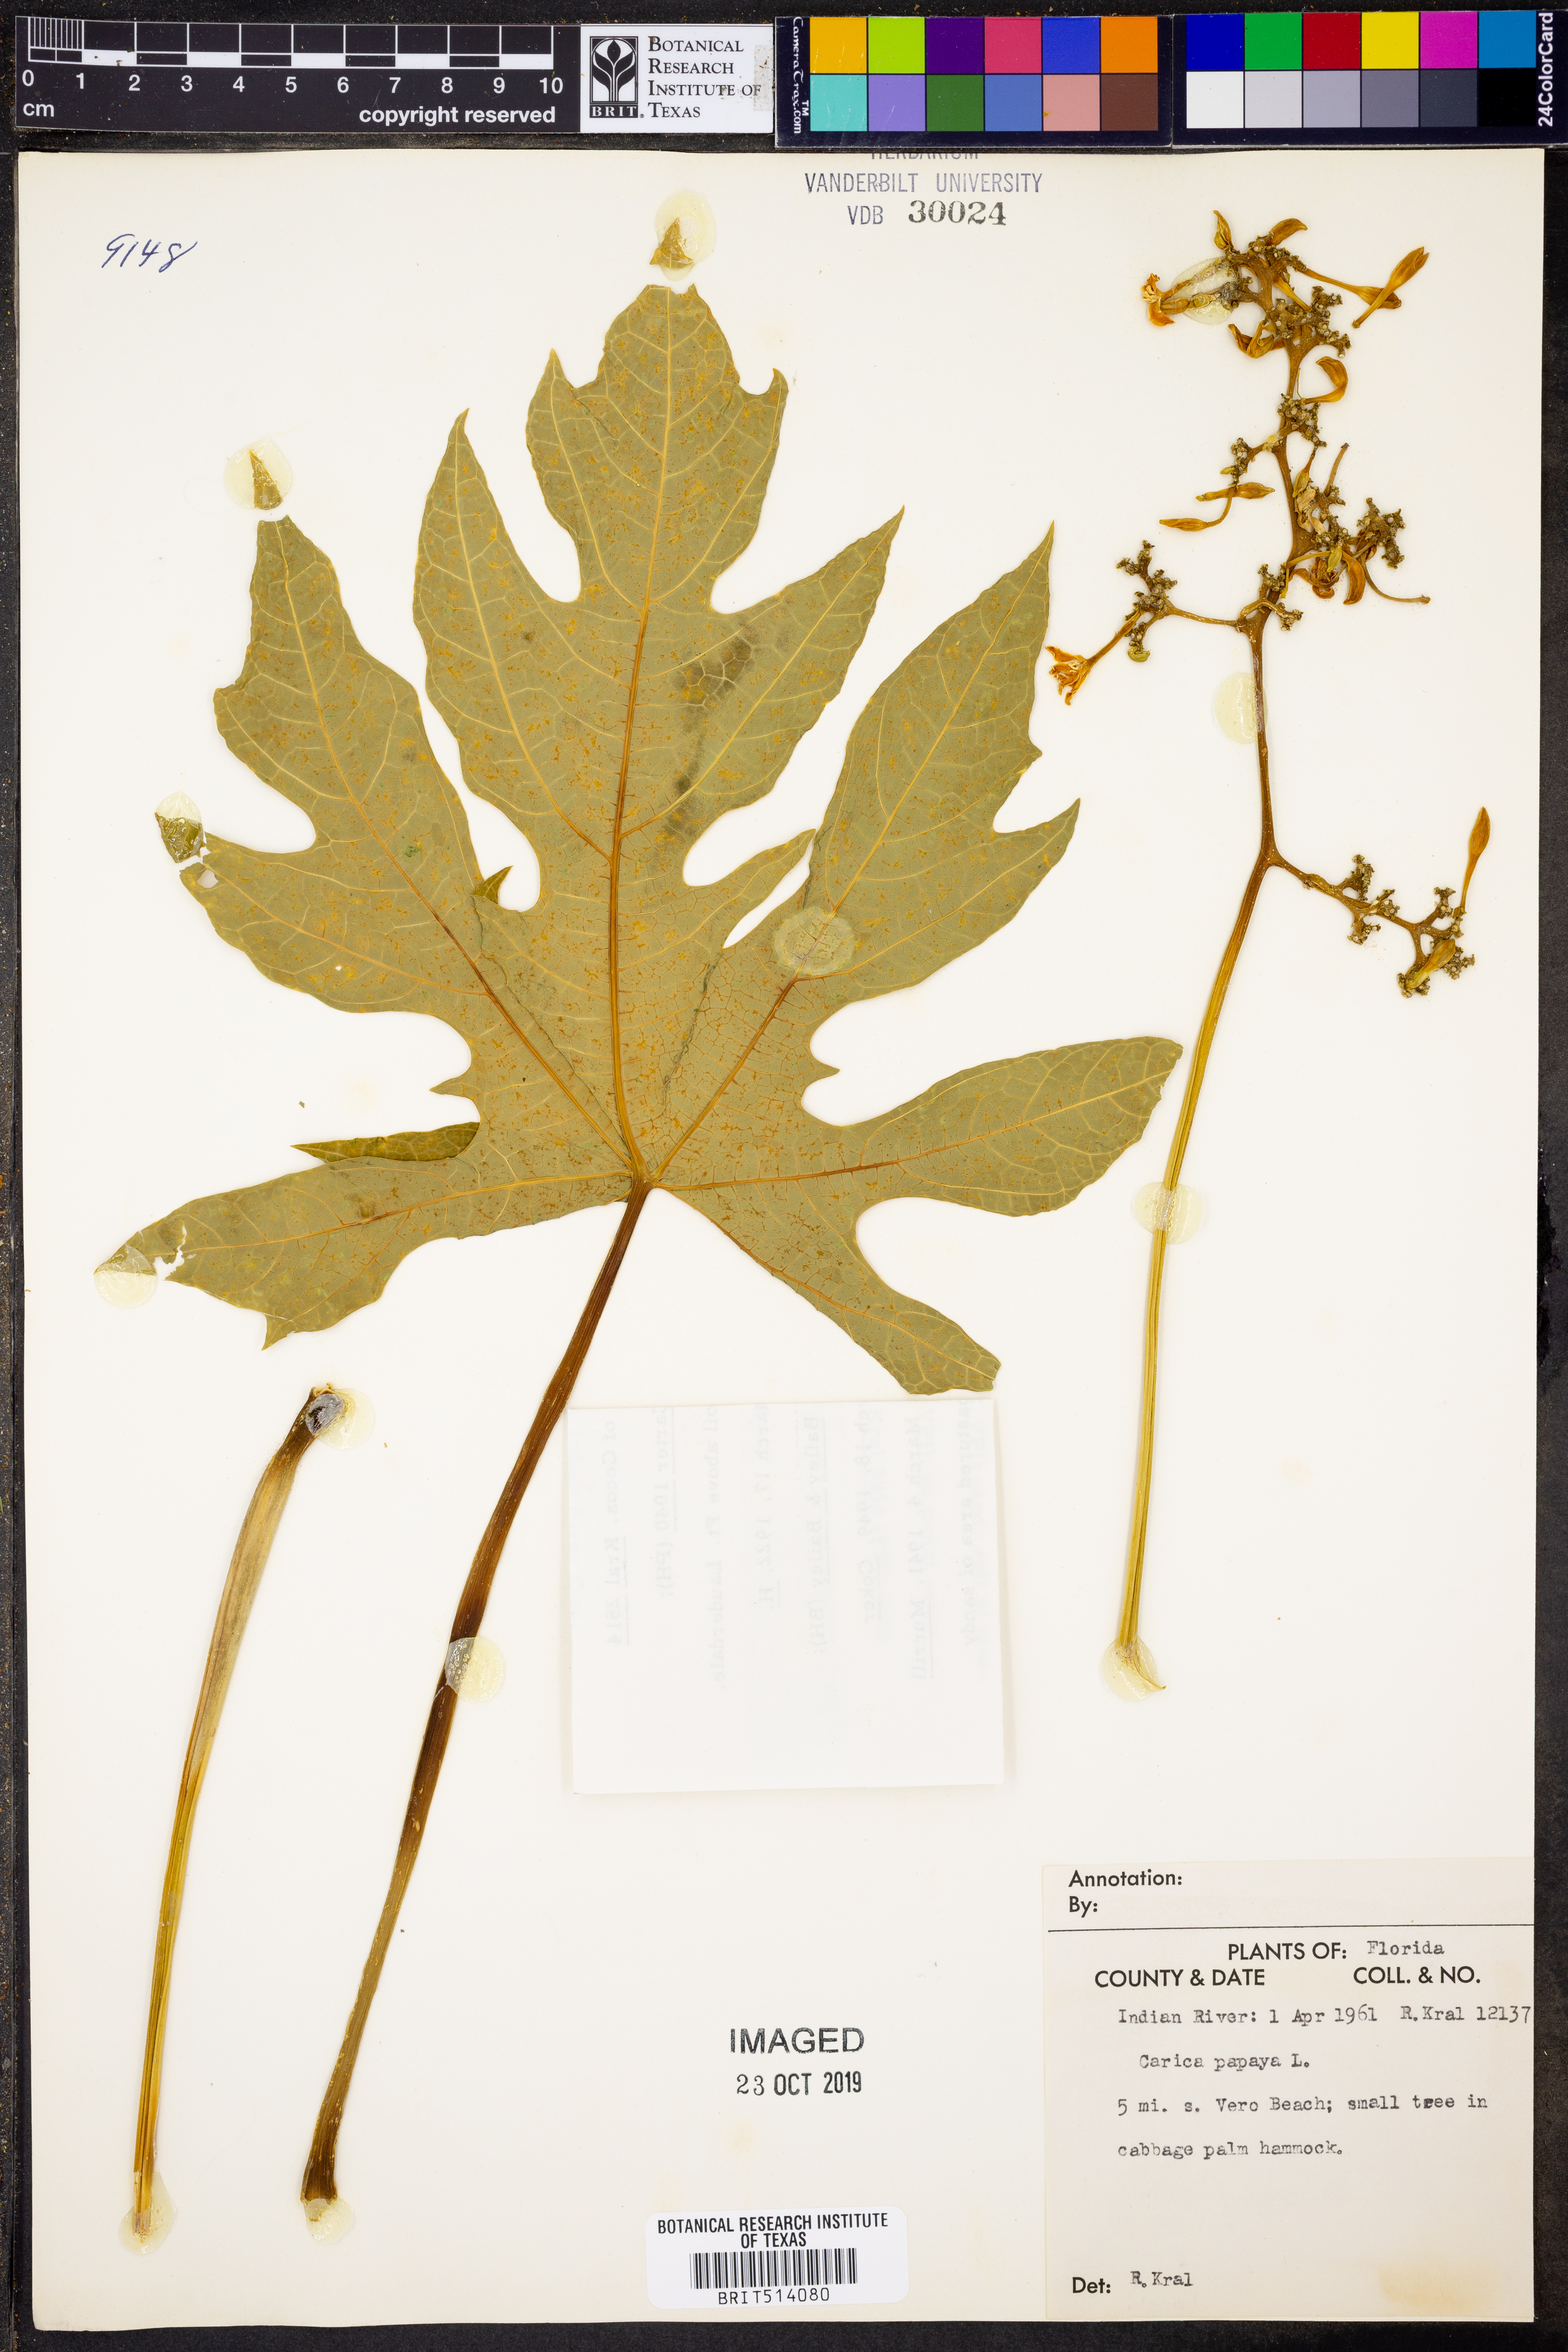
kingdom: Plantae
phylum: Tracheophyta
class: Magnoliopsida
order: Brassicales
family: Caricaceae
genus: Carica
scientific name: Carica papaya
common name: Papaya
